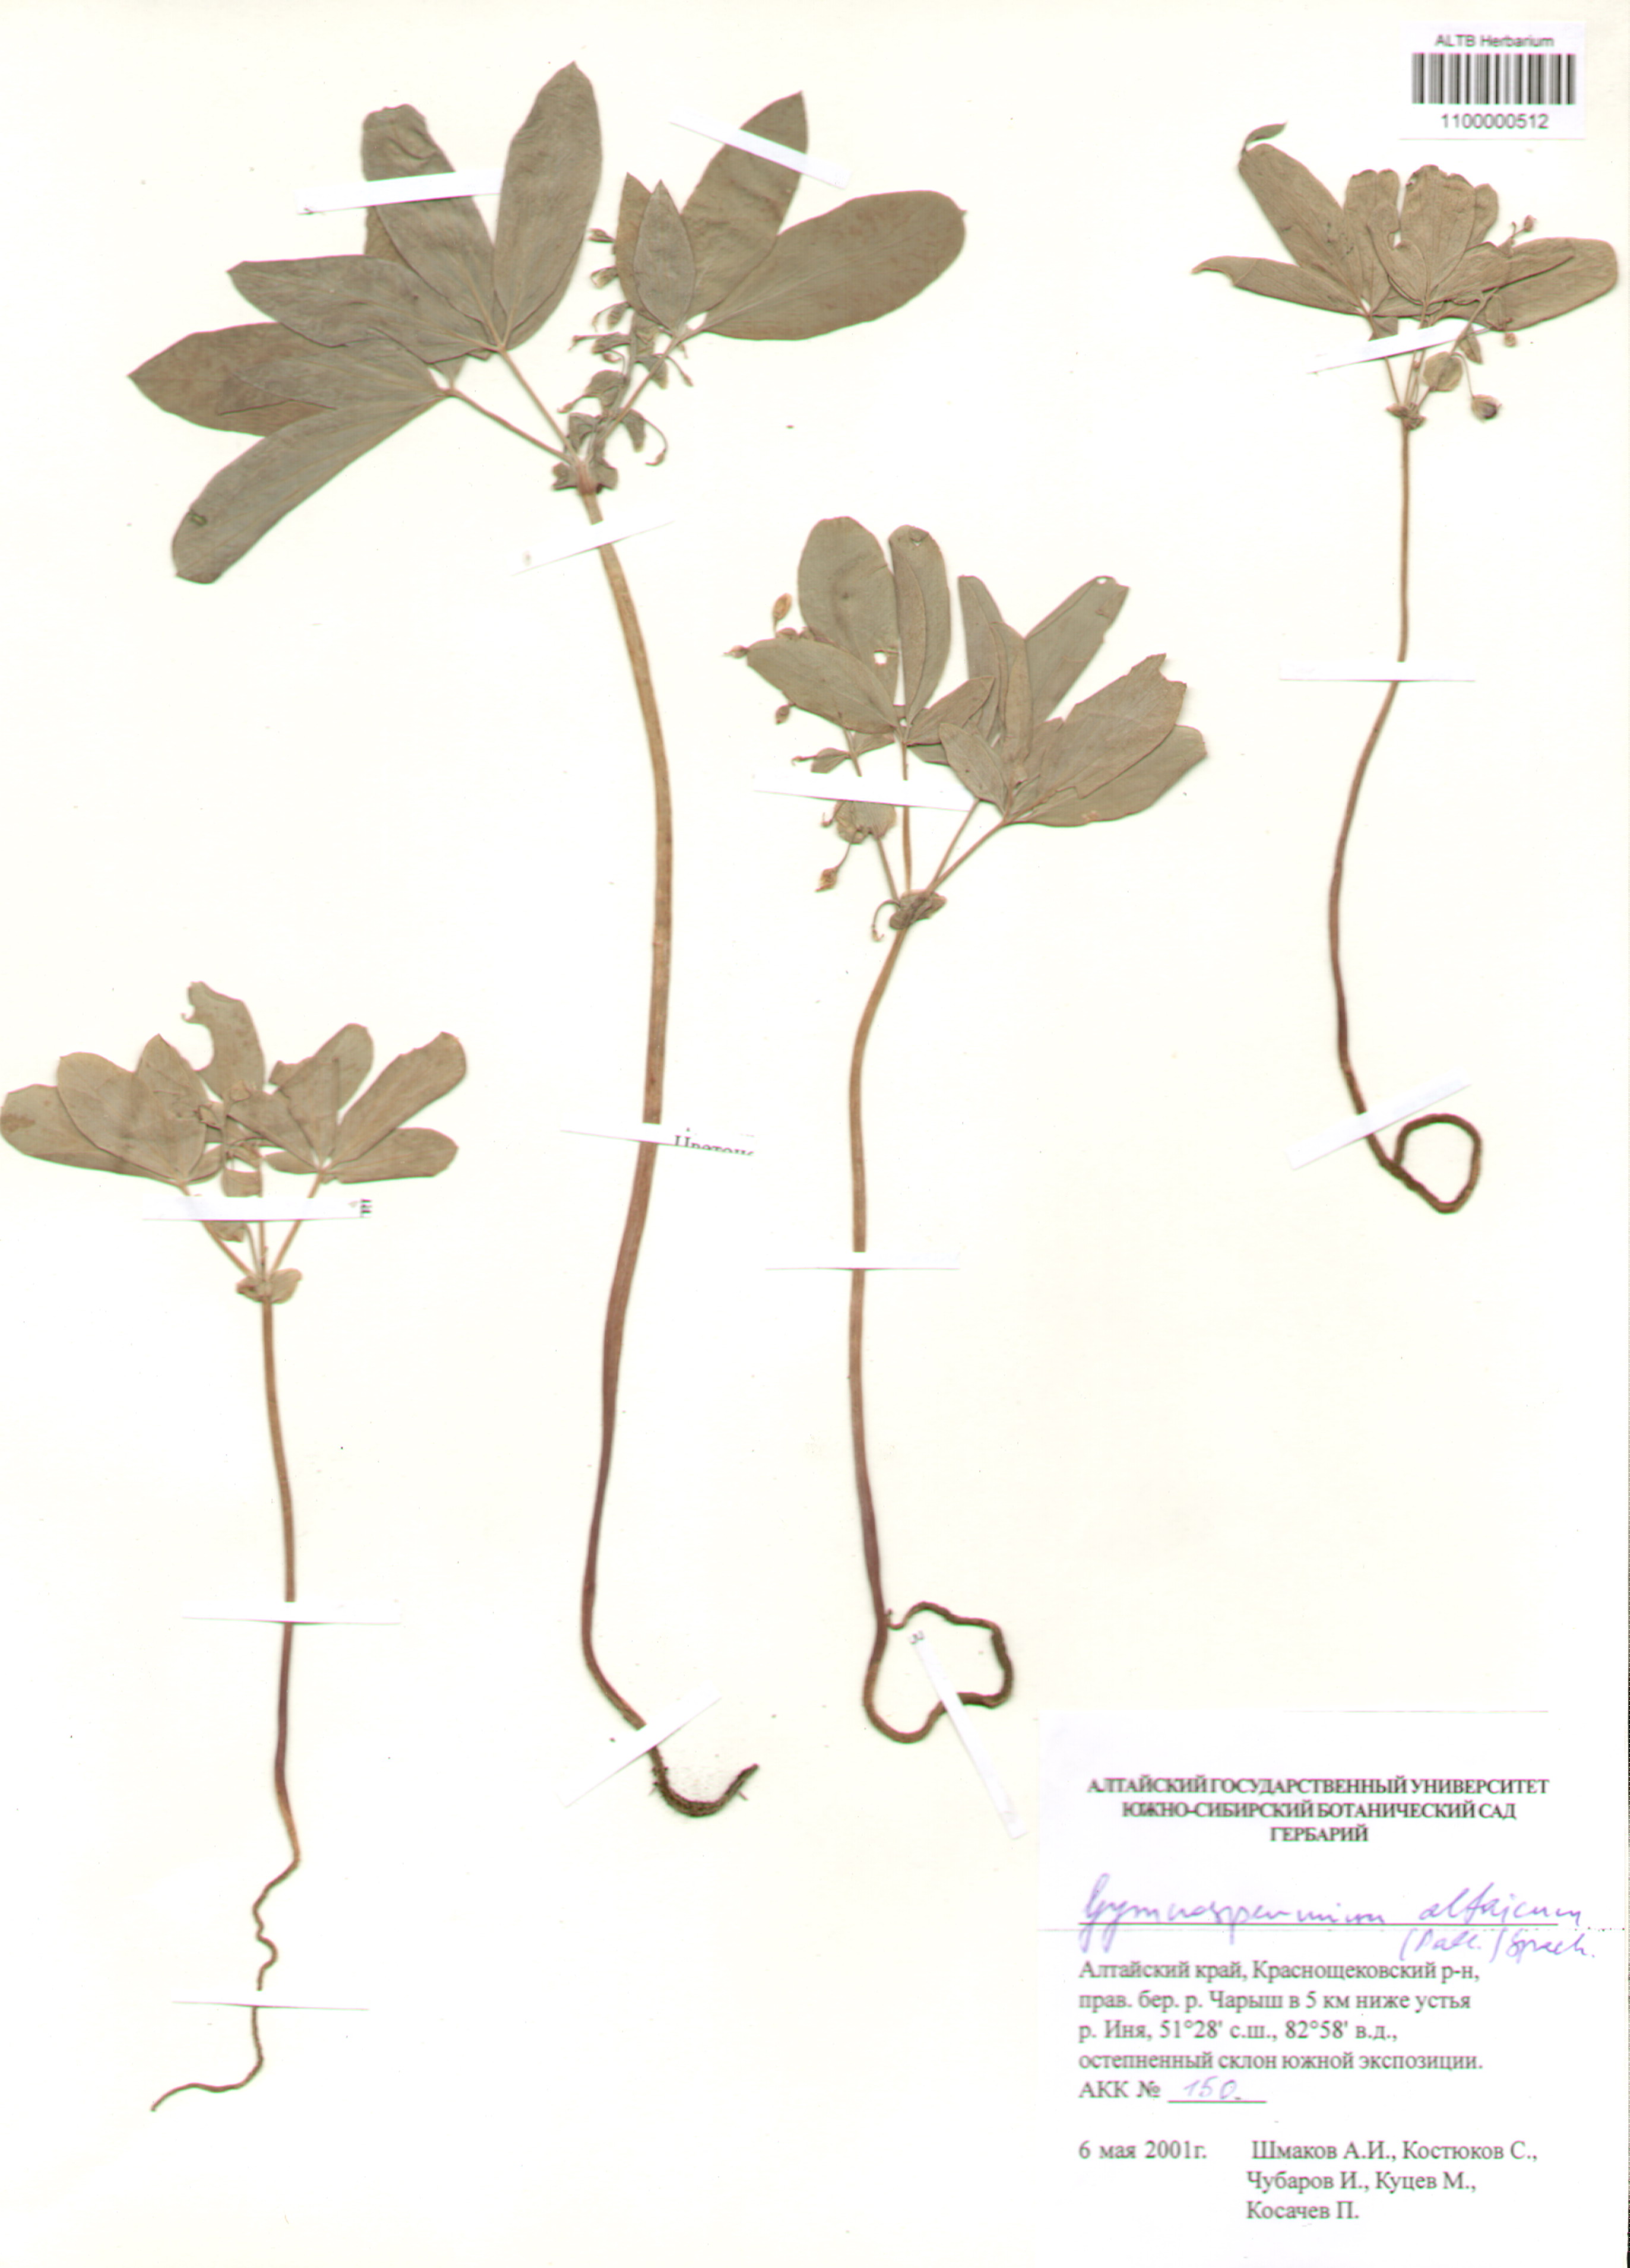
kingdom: Plantae
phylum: Tracheophyta
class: Magnoliopsida
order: Ranunculales
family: Berberidaceae
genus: Gymnospermium
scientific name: Gymnospermium altaicum
